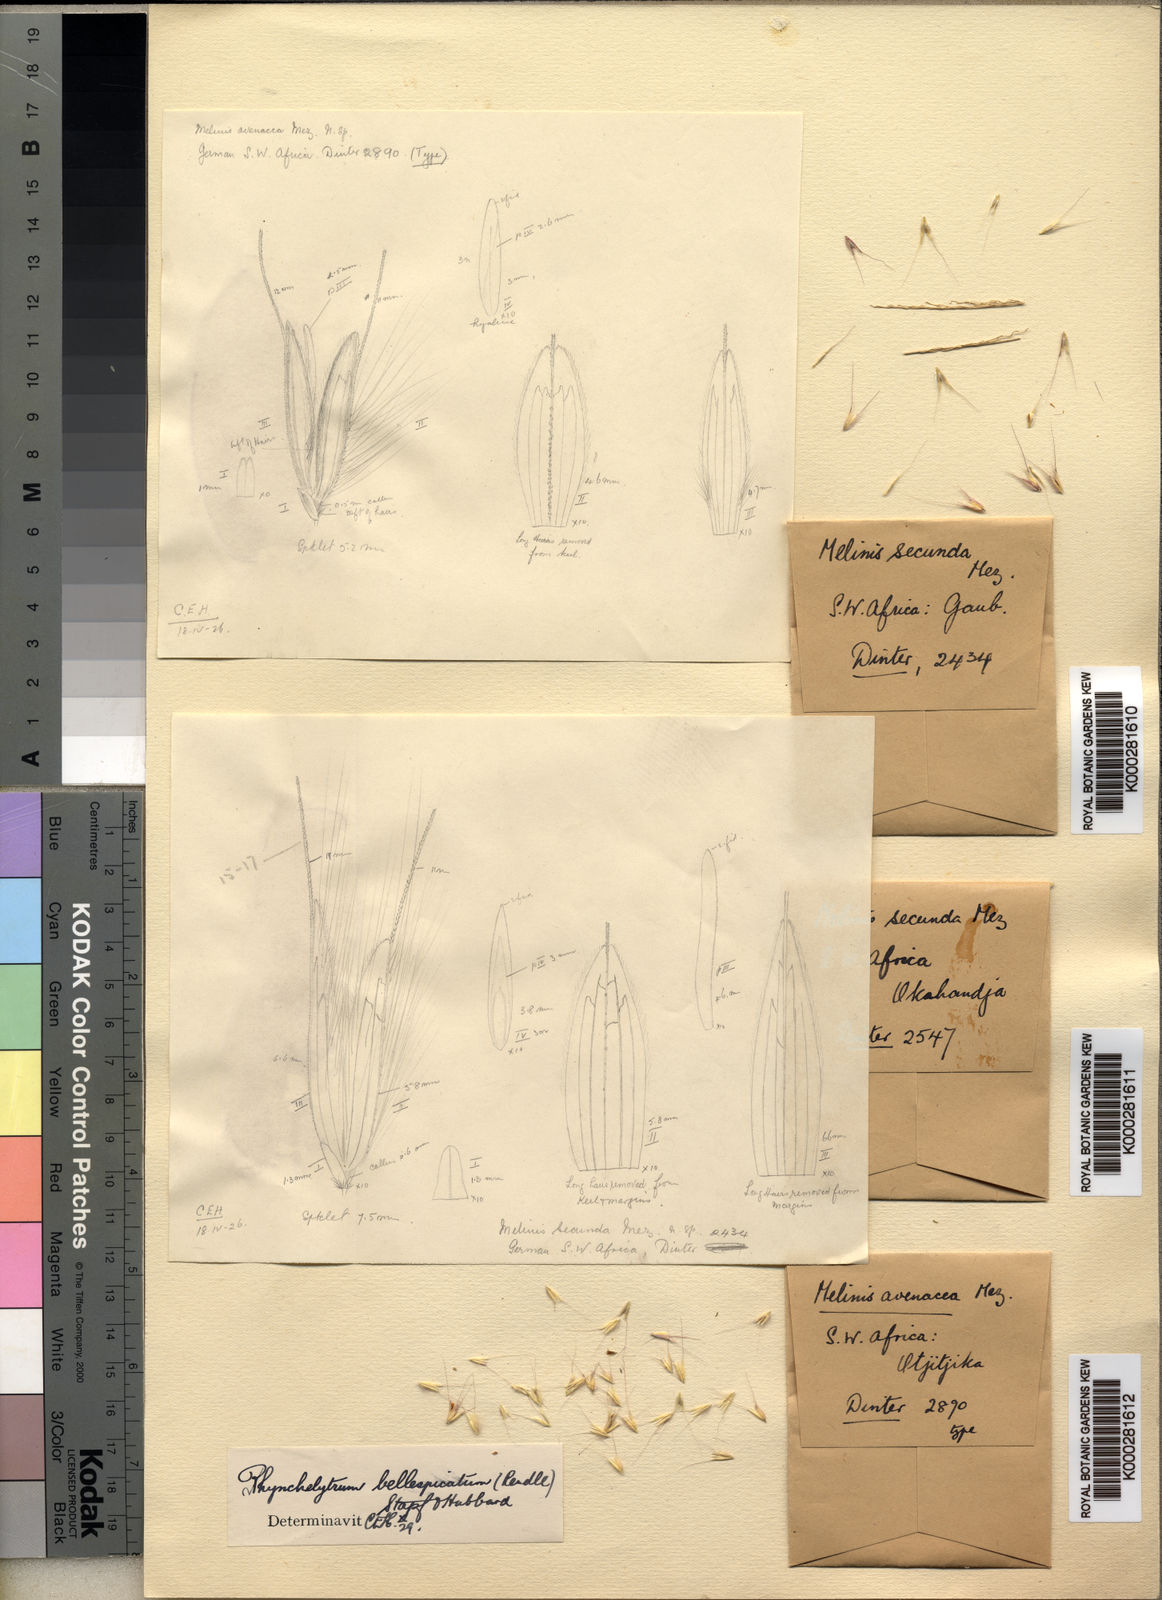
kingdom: Plantae
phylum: Tracheophyta
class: Liliopsida
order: Poales
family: Poaceae
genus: Melinis
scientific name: Melinis longiseta
